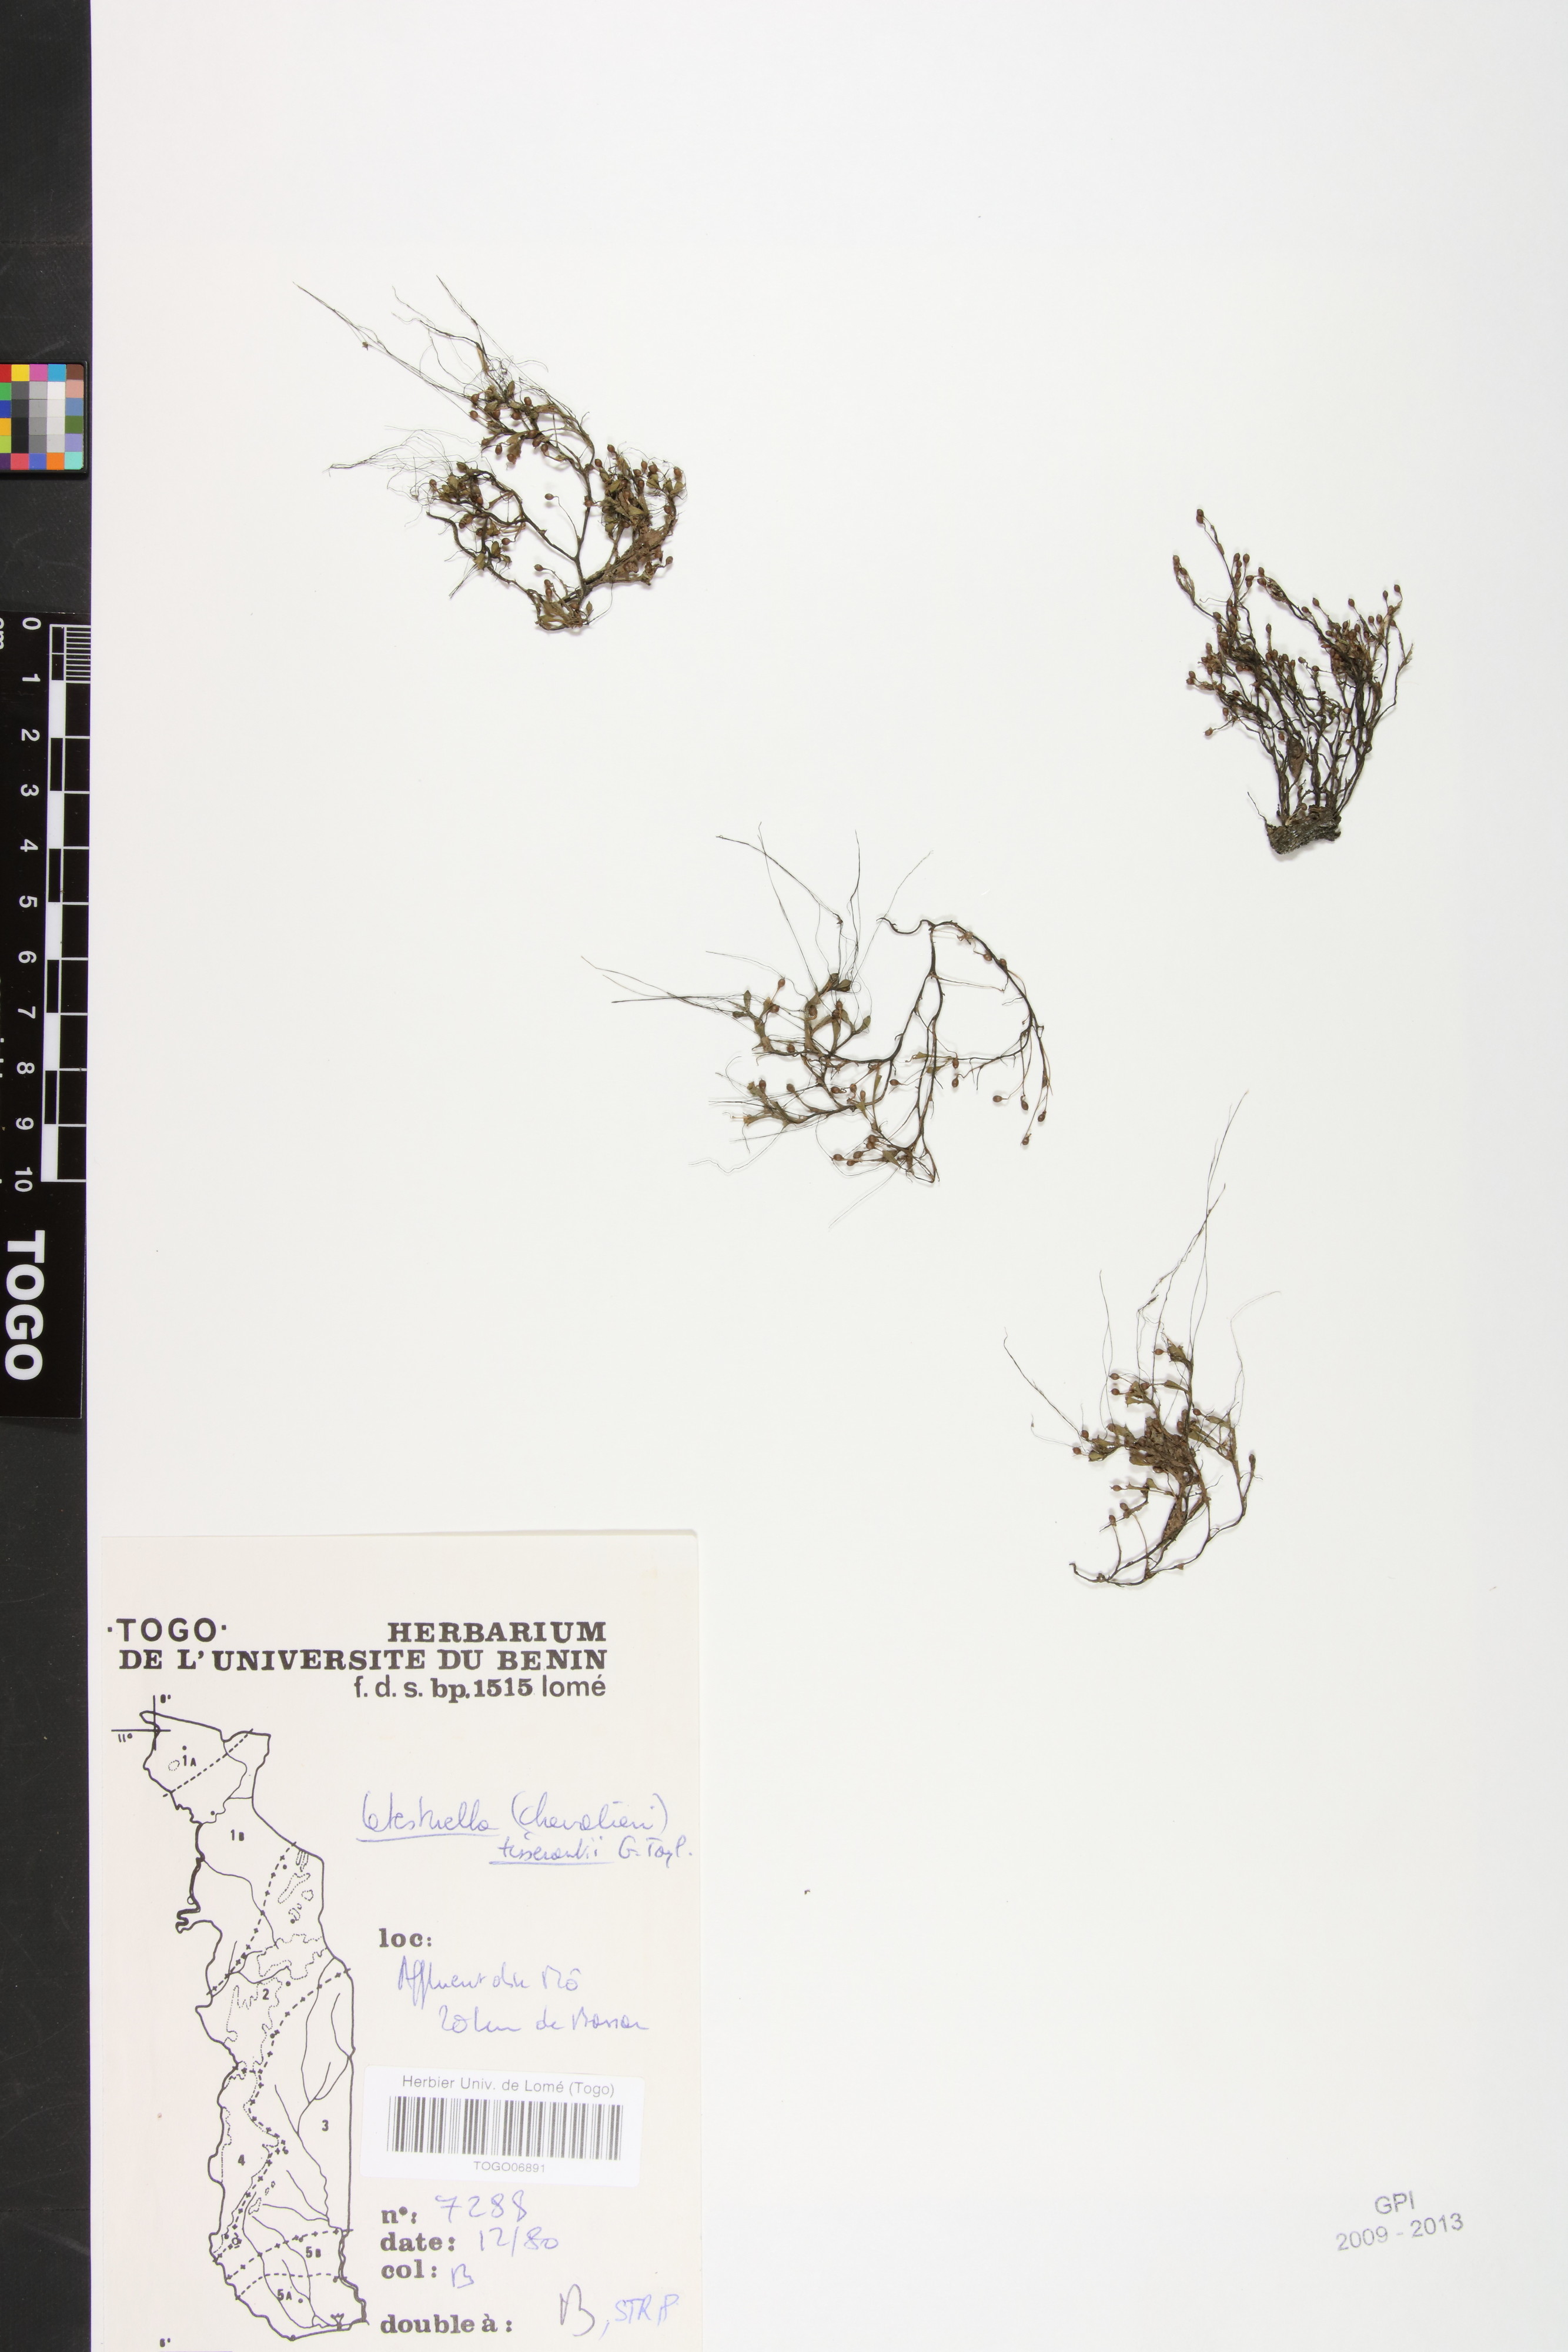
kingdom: Plantae
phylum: Tracheophyta
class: Magnoliopsida
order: Malpighiales
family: Podostemaceae
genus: Letestuella
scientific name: Letestuella tisserantii
